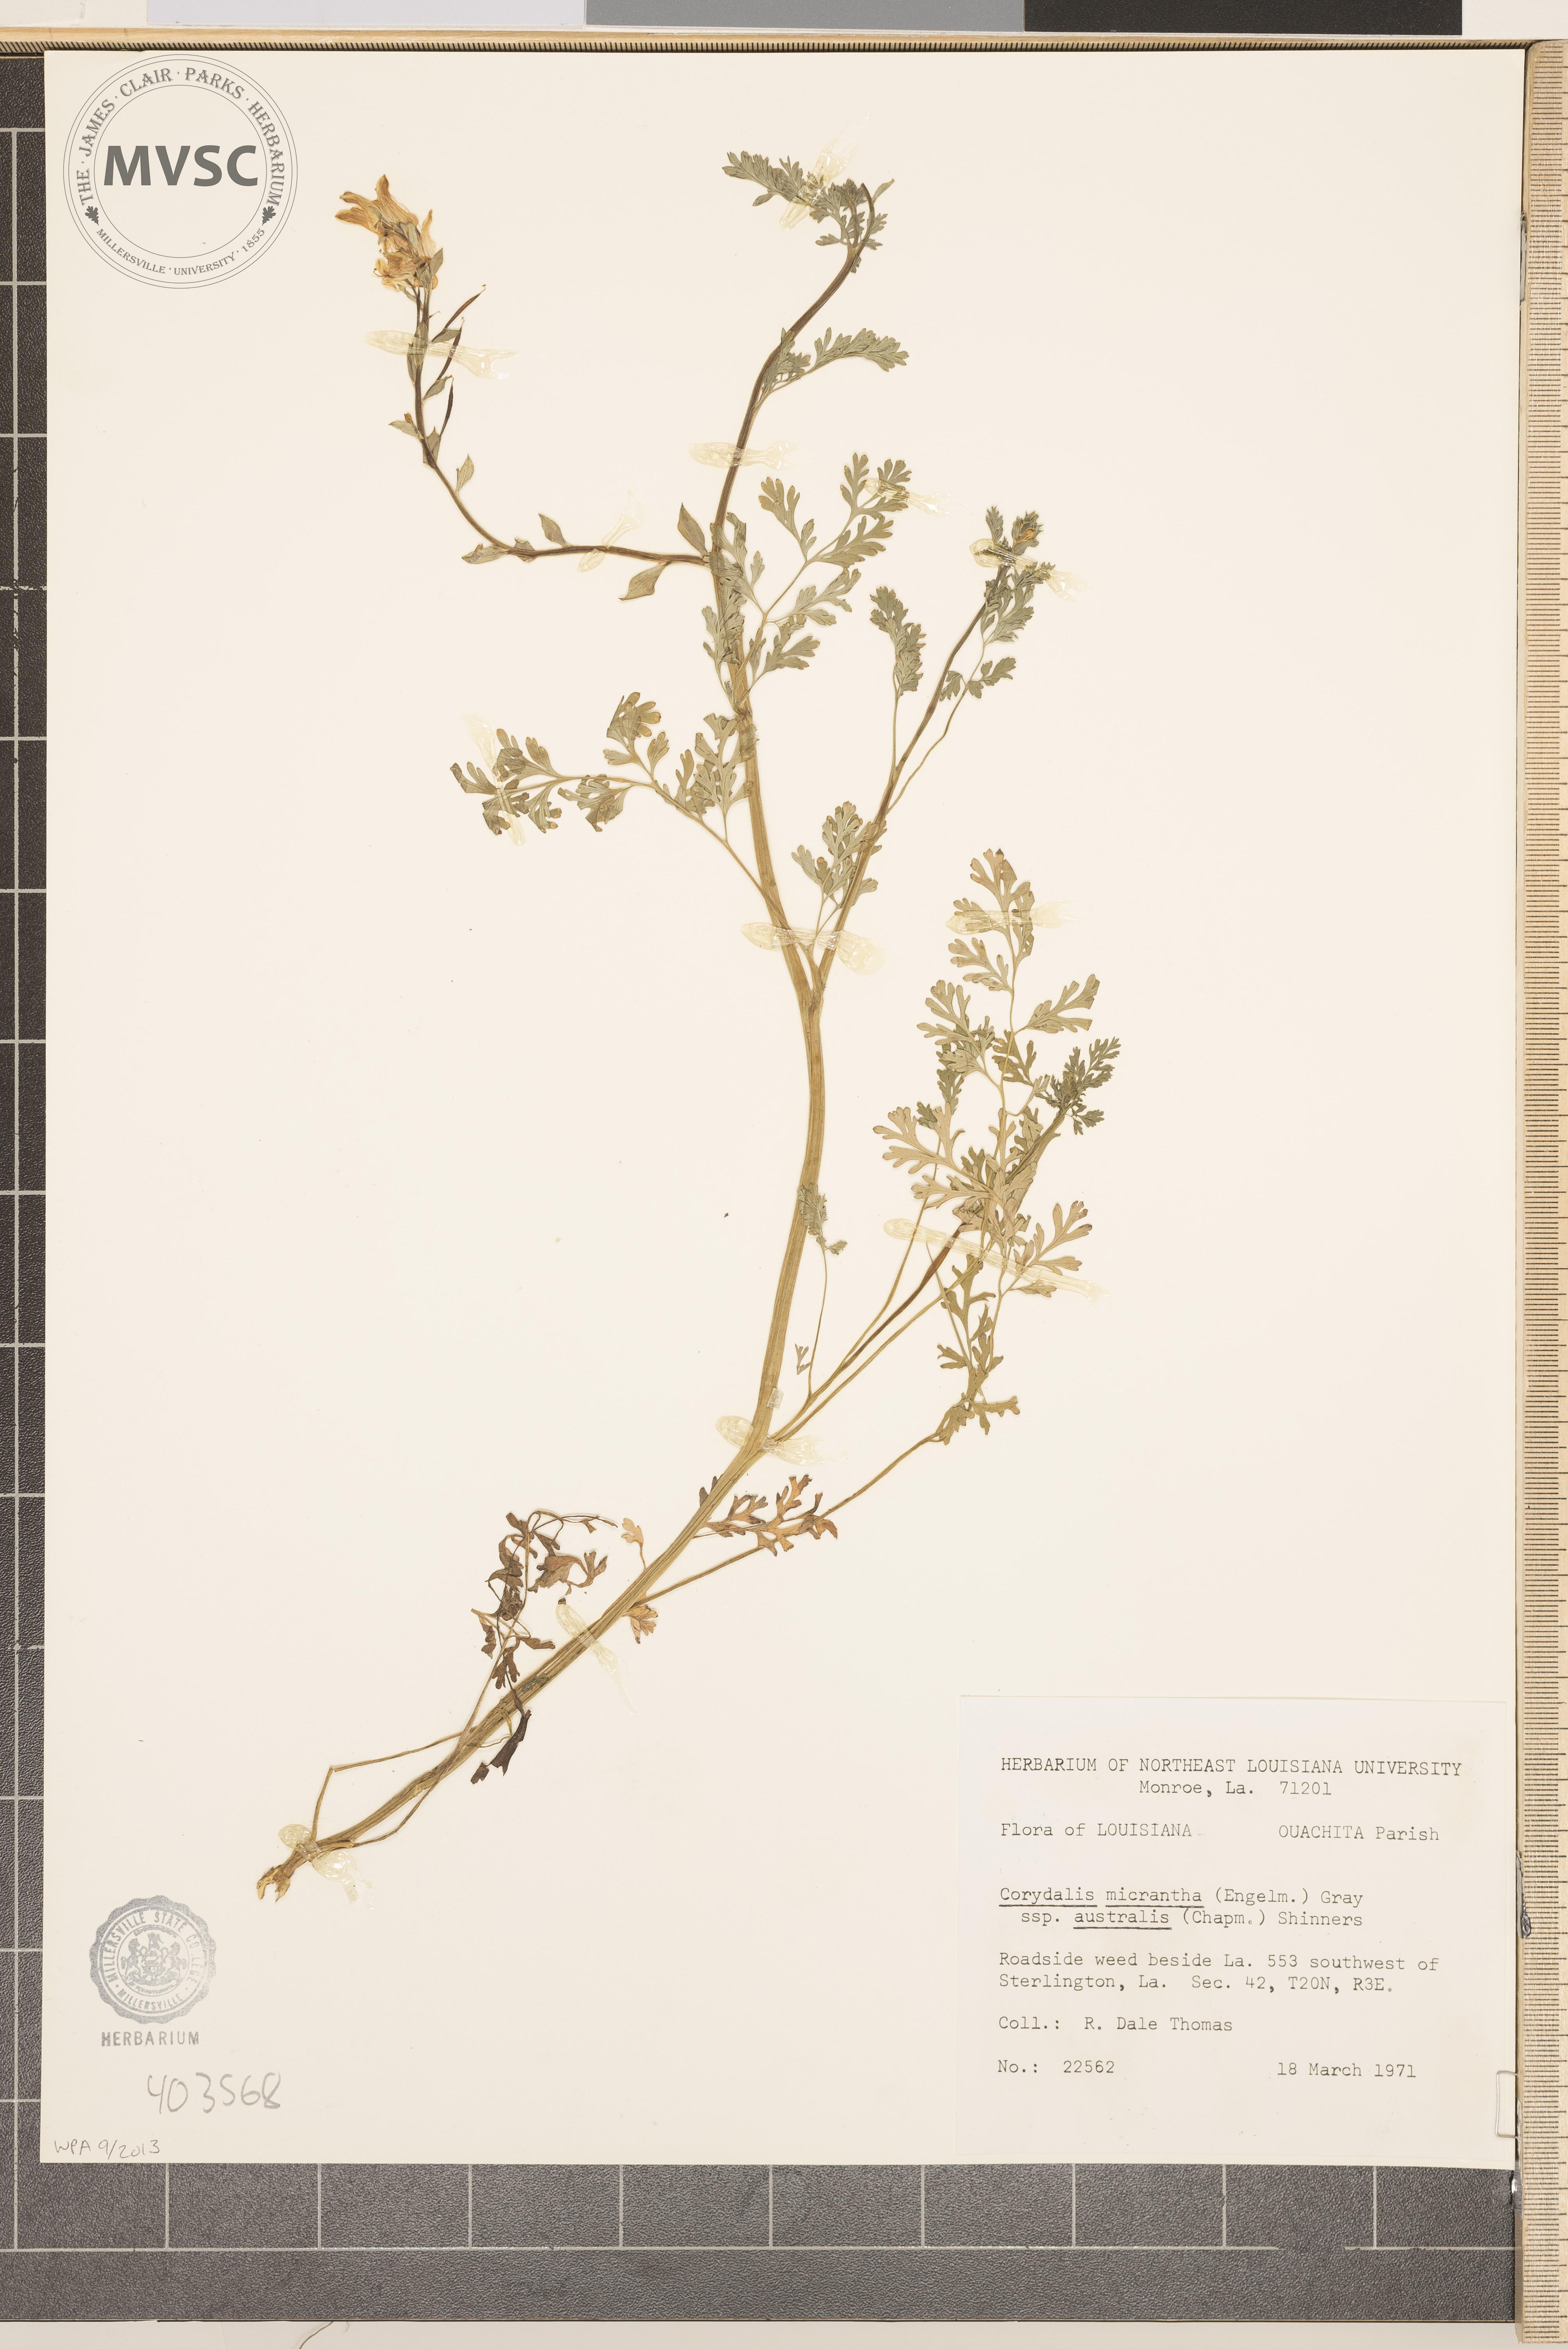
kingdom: Plantae
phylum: Tracheophyta
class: Magnoliopsida
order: Ranunculales
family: Papaveraceae
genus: Corydalis
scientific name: Corydalis micrantha
